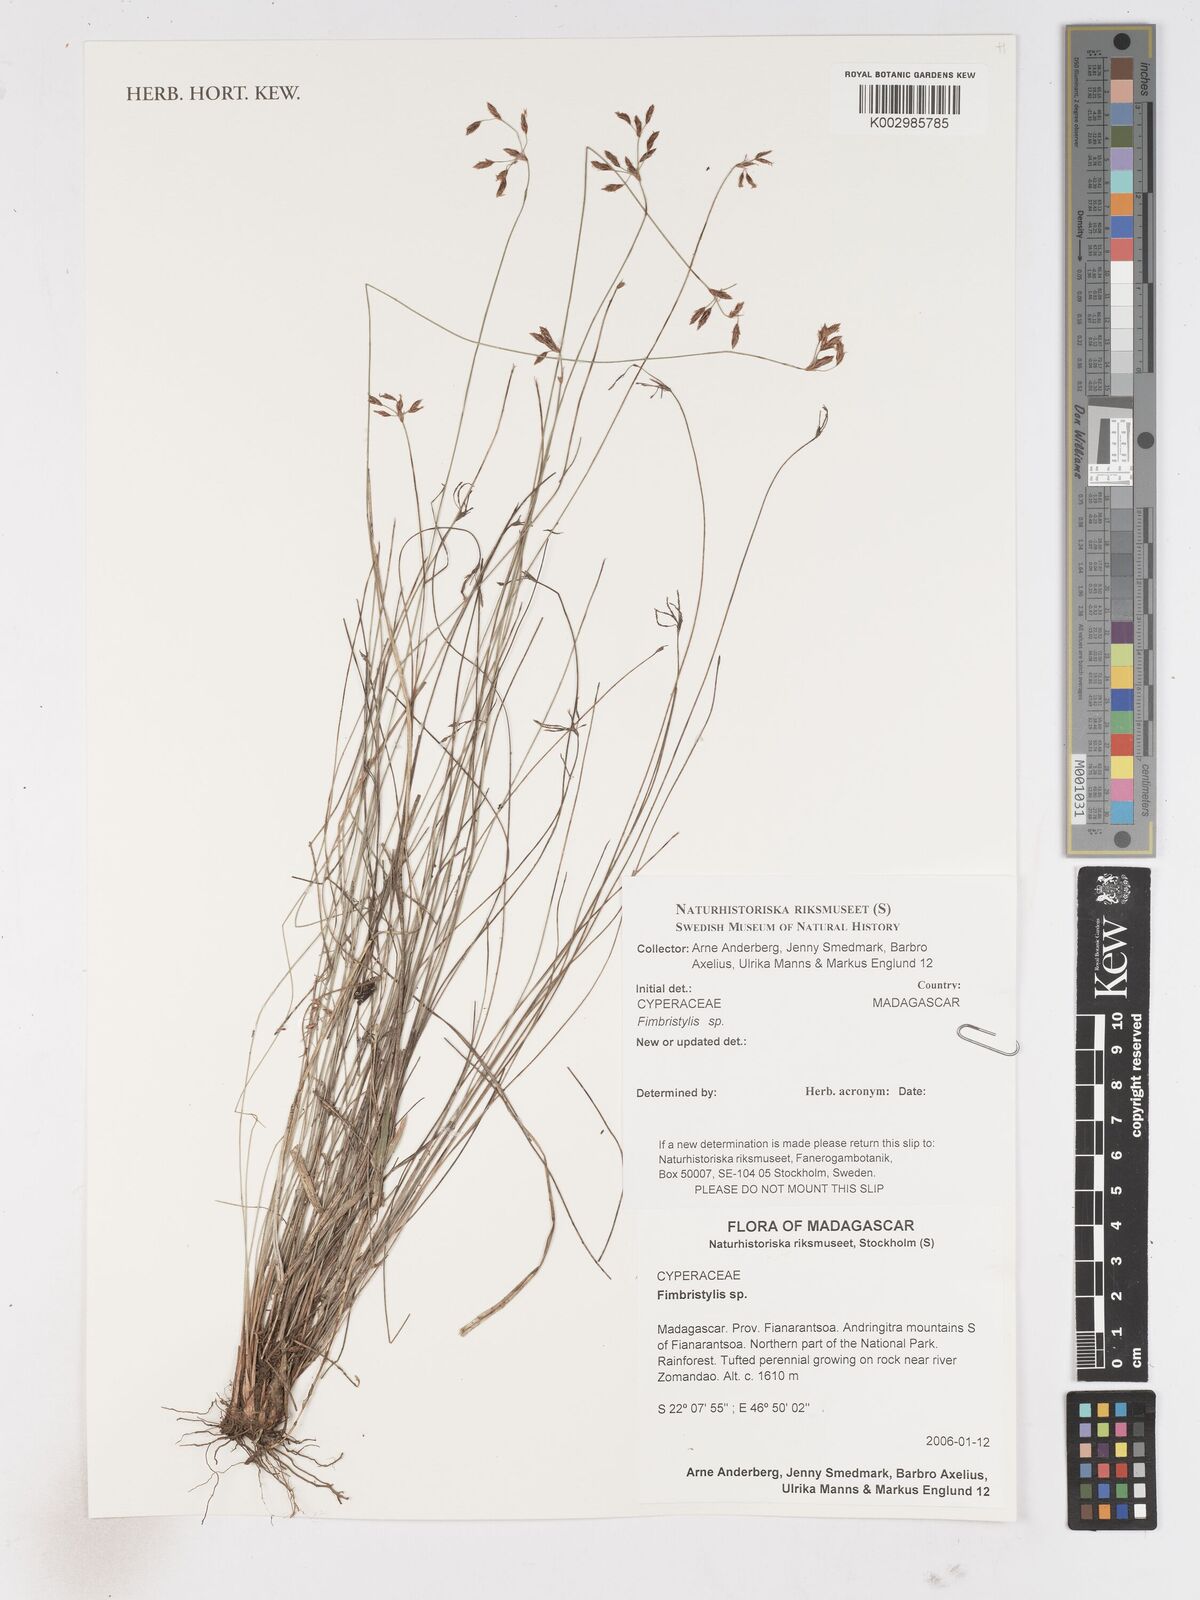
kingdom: Plantae
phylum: Tracheophyta
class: Liliopsida
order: Poales
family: Cyperaceae
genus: Fimbristylis
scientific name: Fimbristylis
